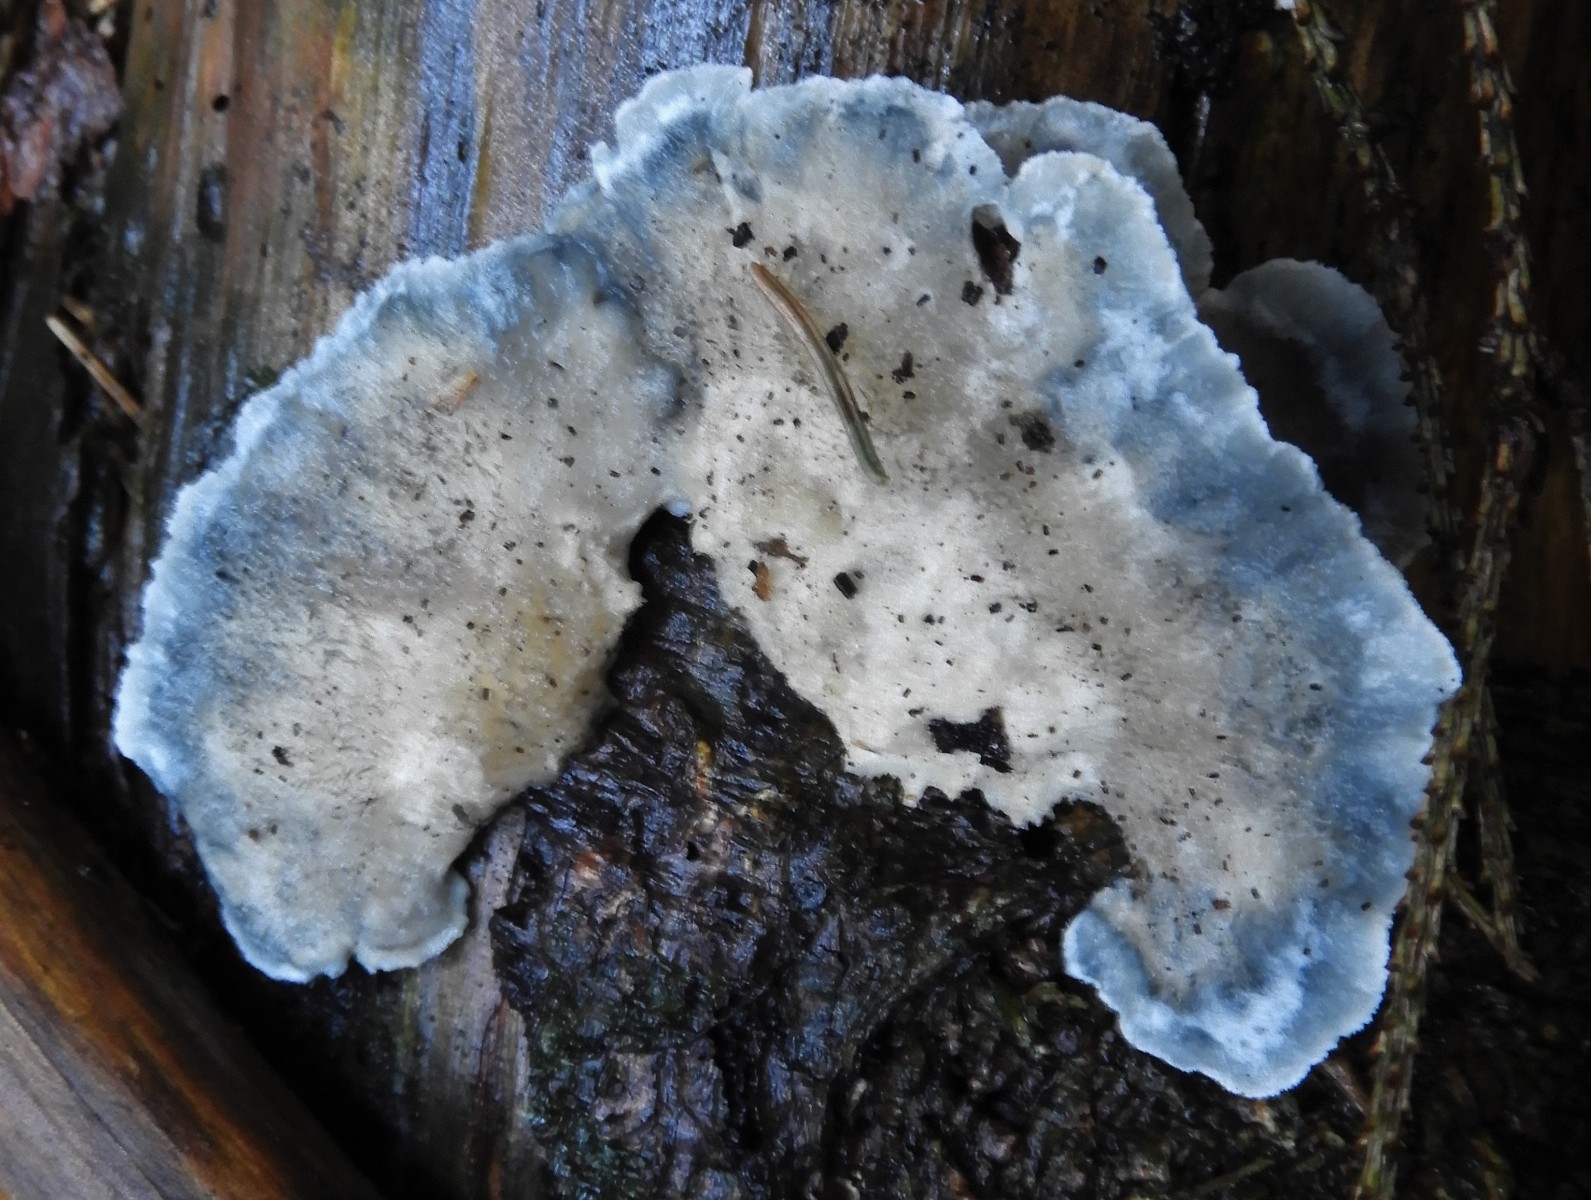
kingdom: Fungi
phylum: Basidiomycota
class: Agaricomycetes
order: Polyporales
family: Polyporaceae
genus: Cyanosporus
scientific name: Cyanosporus caesius
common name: blålig kødporesvamp
